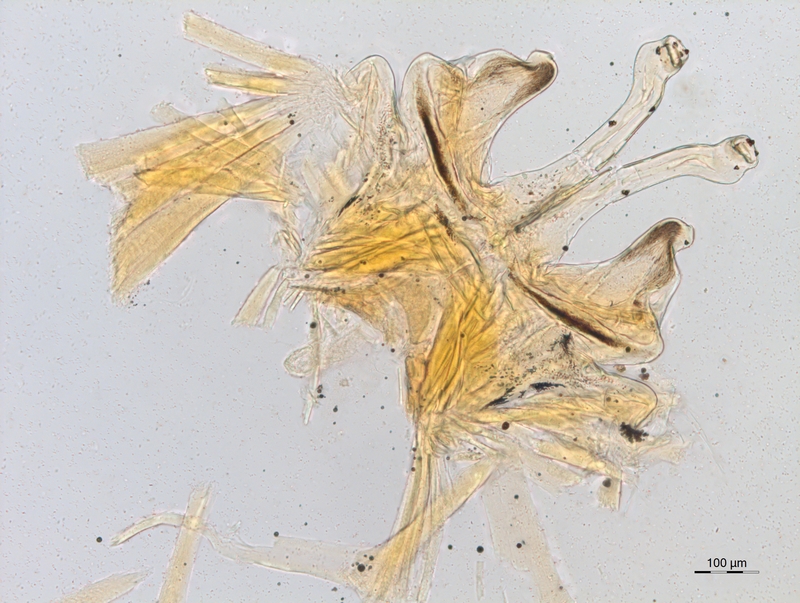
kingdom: Animalia
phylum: Arthropoda
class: Diplopoda
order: Chordeumatida
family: Attemsiidae
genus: Polyphematia
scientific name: Polyphematia moniliformis
